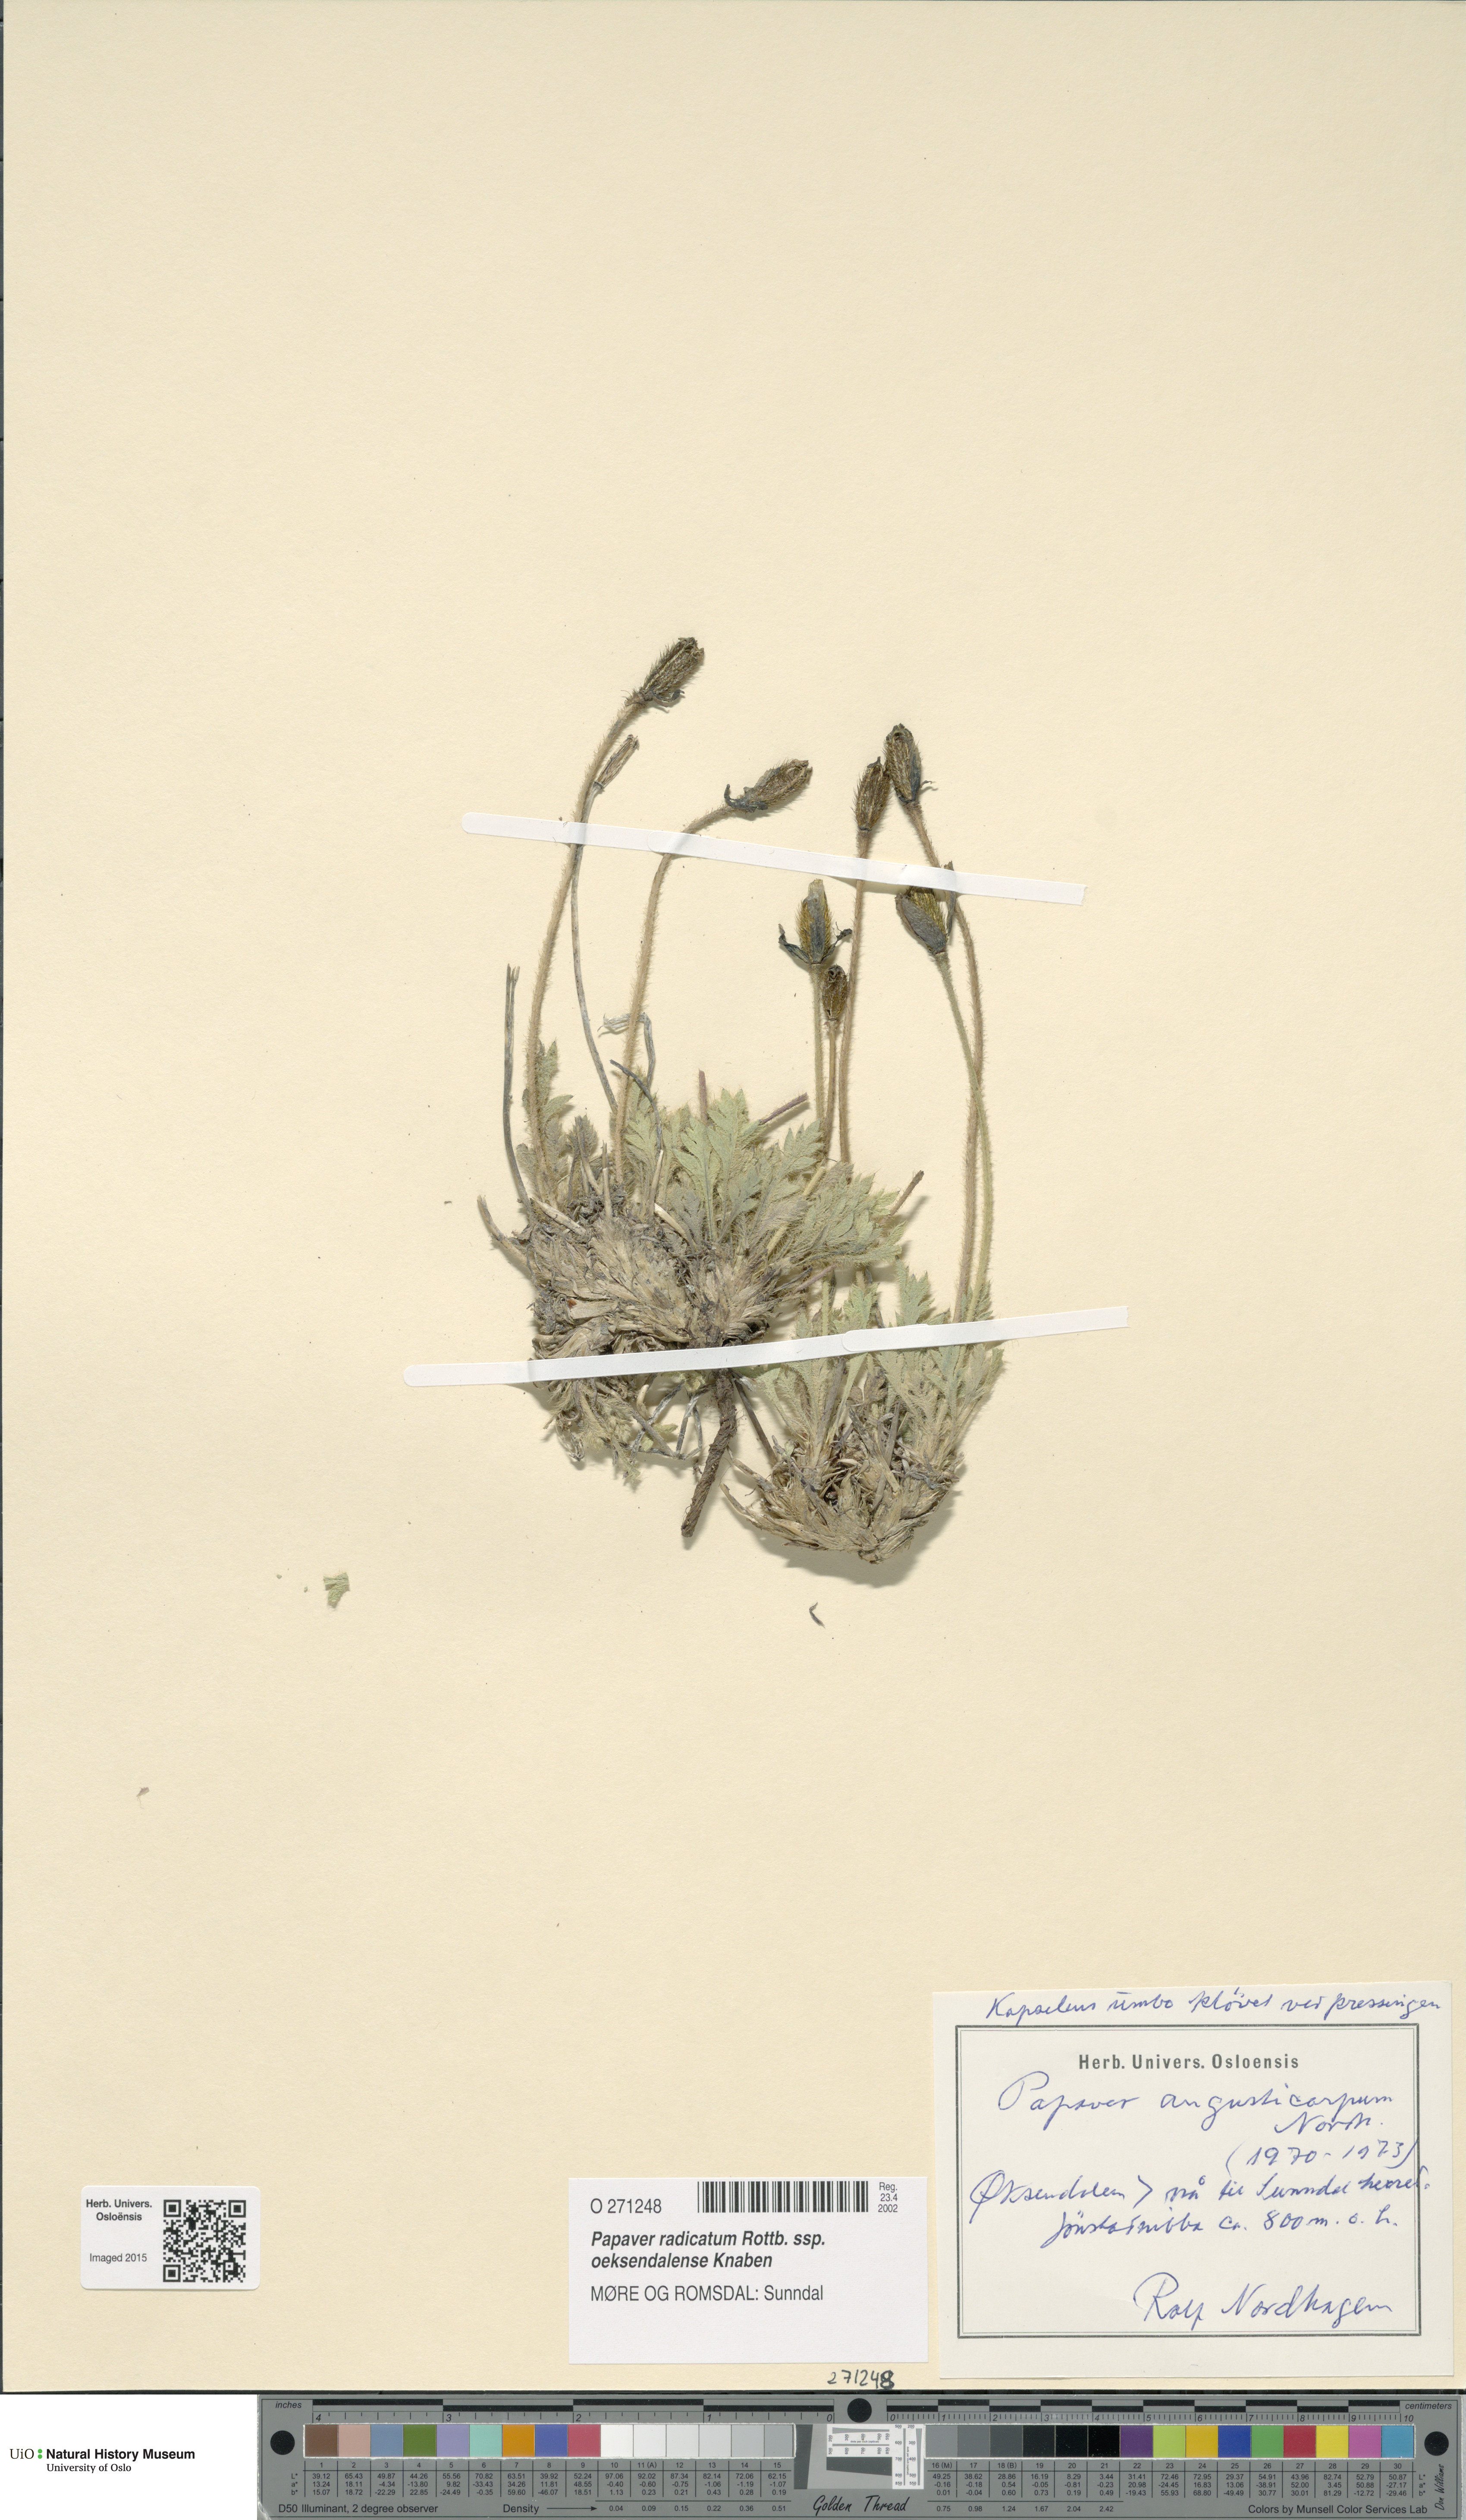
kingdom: Plantae
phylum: Tracheophyta
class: Magnoliopsida
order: Ranunculales
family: Papaveraceae
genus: Papaver
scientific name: Papaver radicatum
